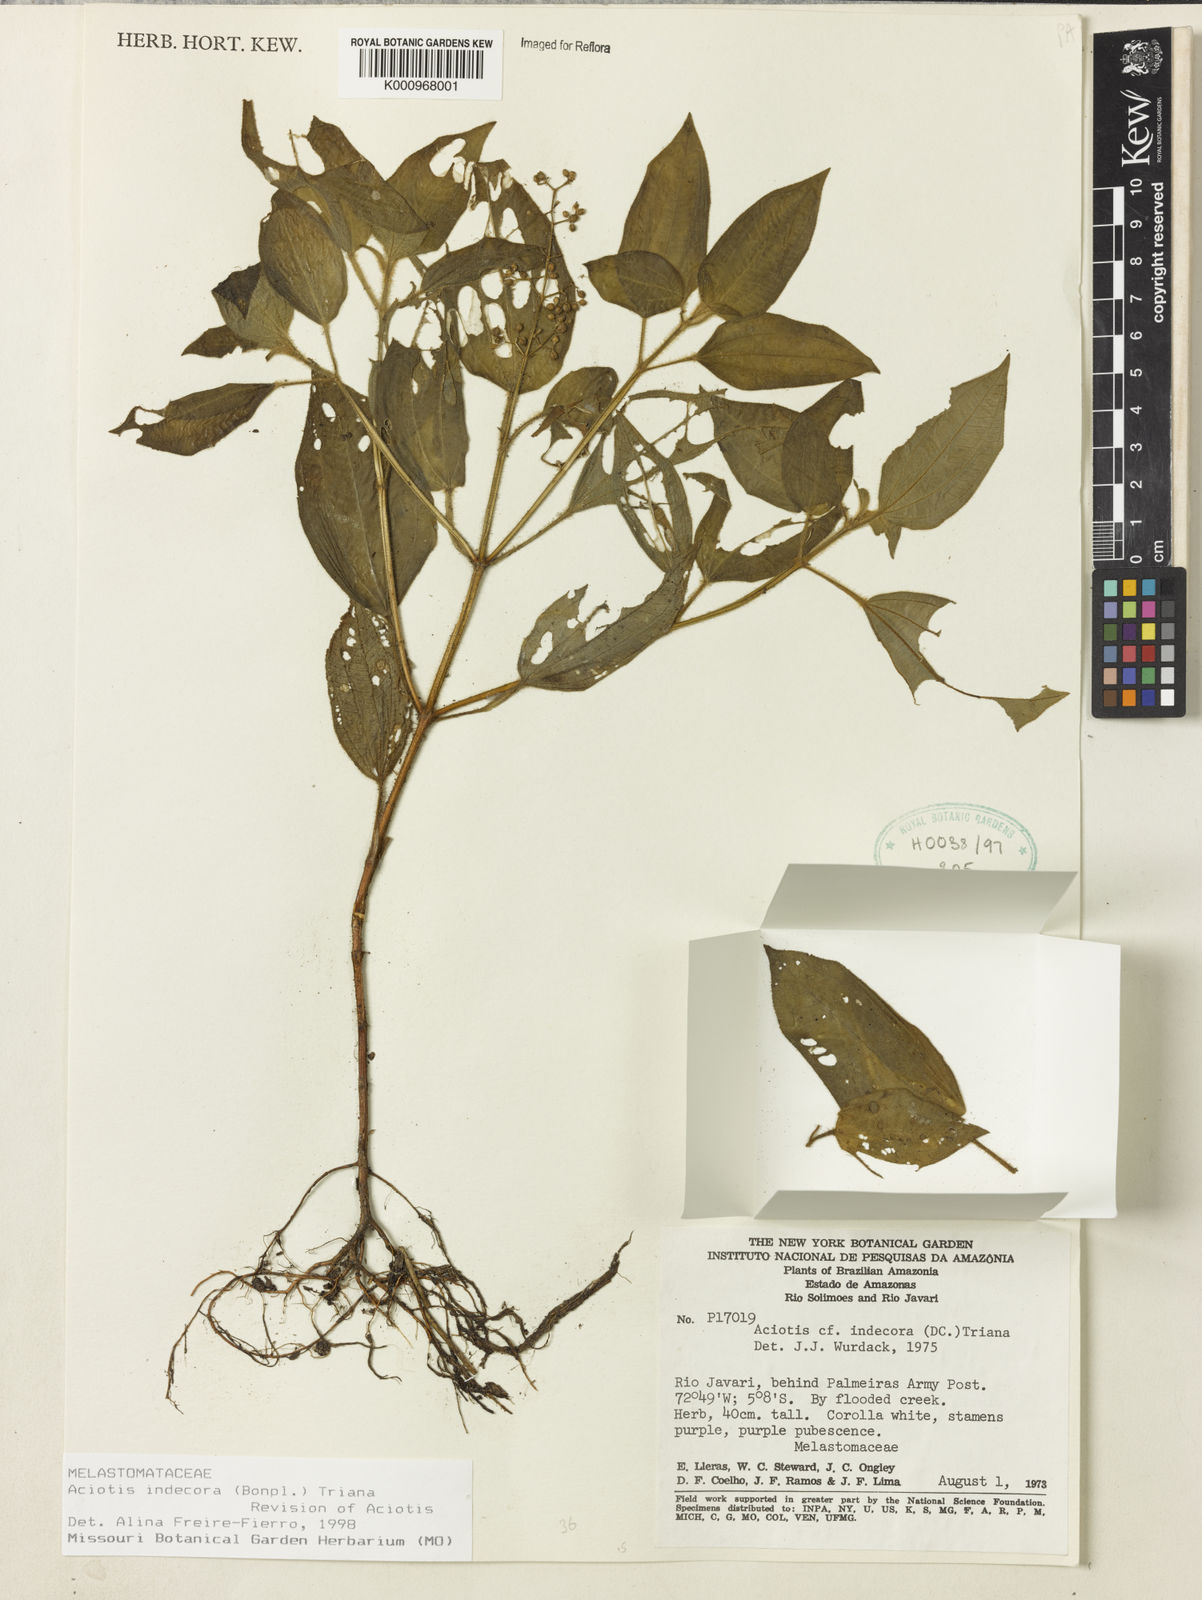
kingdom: Plantae
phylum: Tracheophyta
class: Magnoliopsida
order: Myrtales
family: Melastomataceae
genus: Aciotis
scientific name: Aciotis indecora
